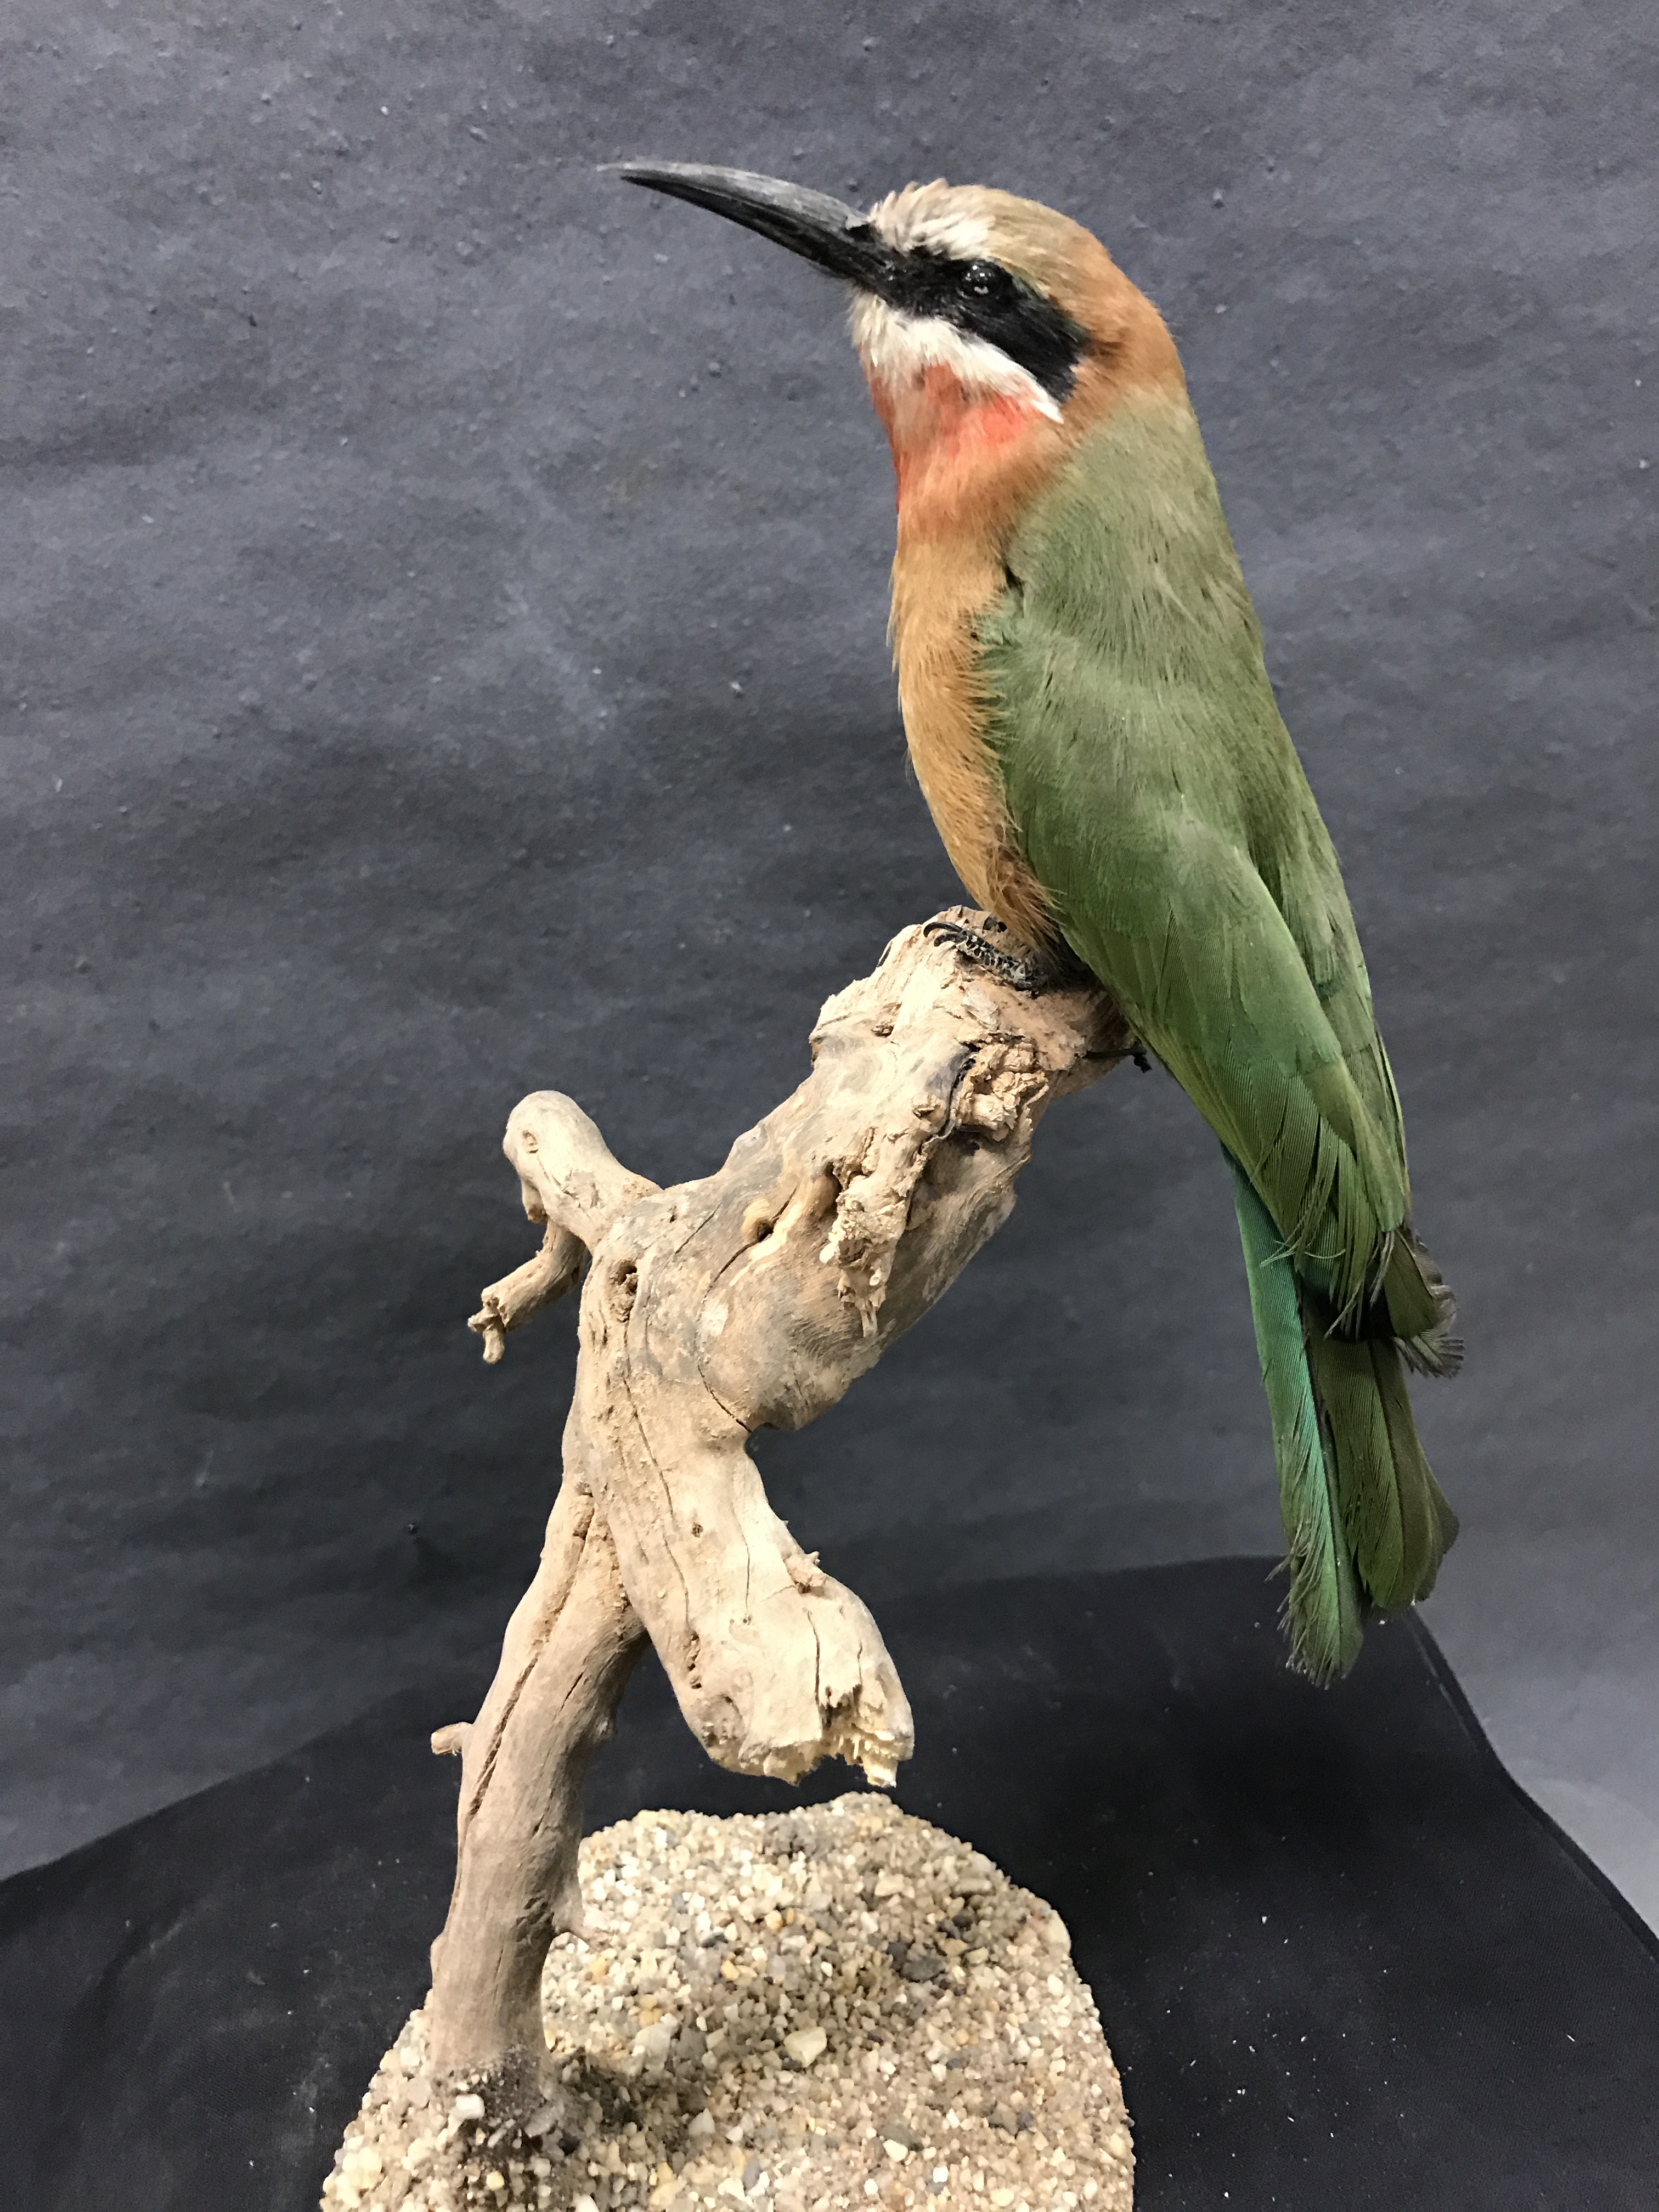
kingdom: Animalia
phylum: Chordata
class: Aves
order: Coraciiformes
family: Meropidae
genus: Merops
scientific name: Merops bullockoides
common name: White-fronted bee-eater
